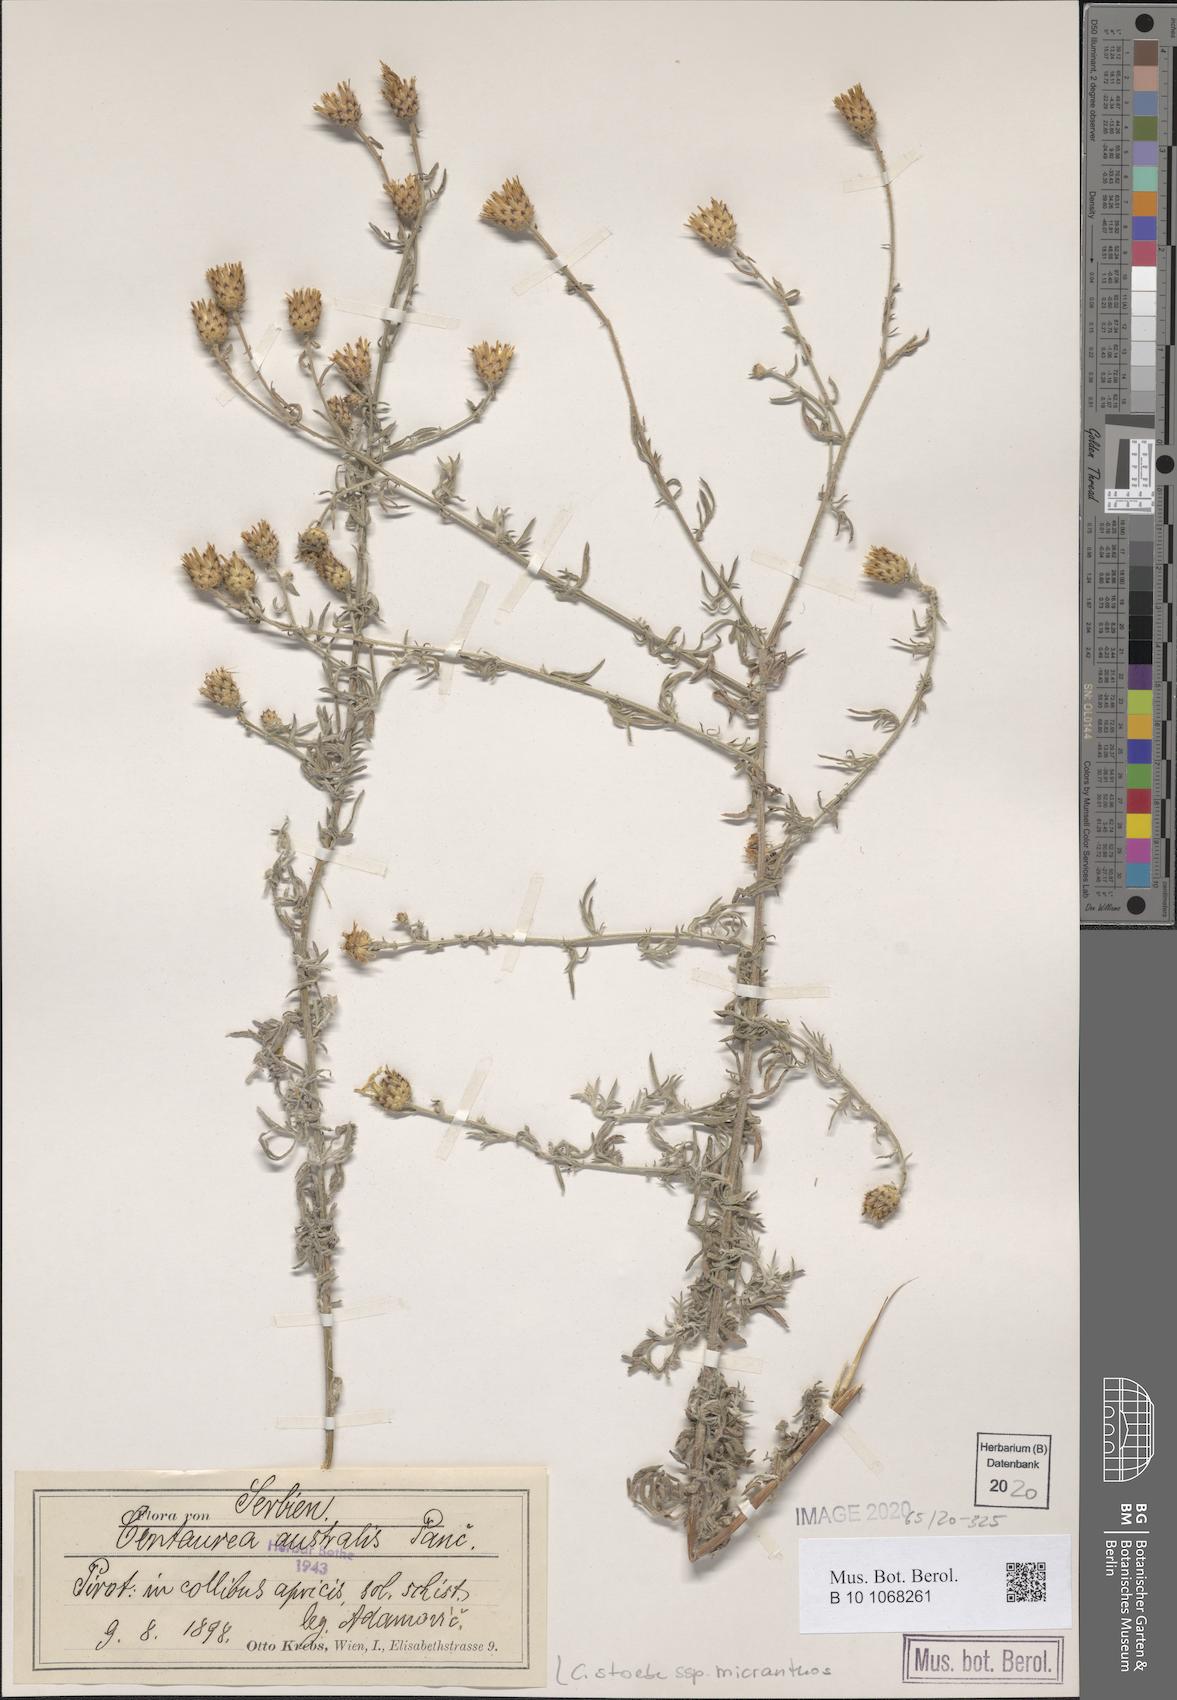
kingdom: Plantae
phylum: Tracheophyta
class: Magnoliopsida
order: Asterales
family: Asteraceae
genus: Centaurea
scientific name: Centaurea australis
